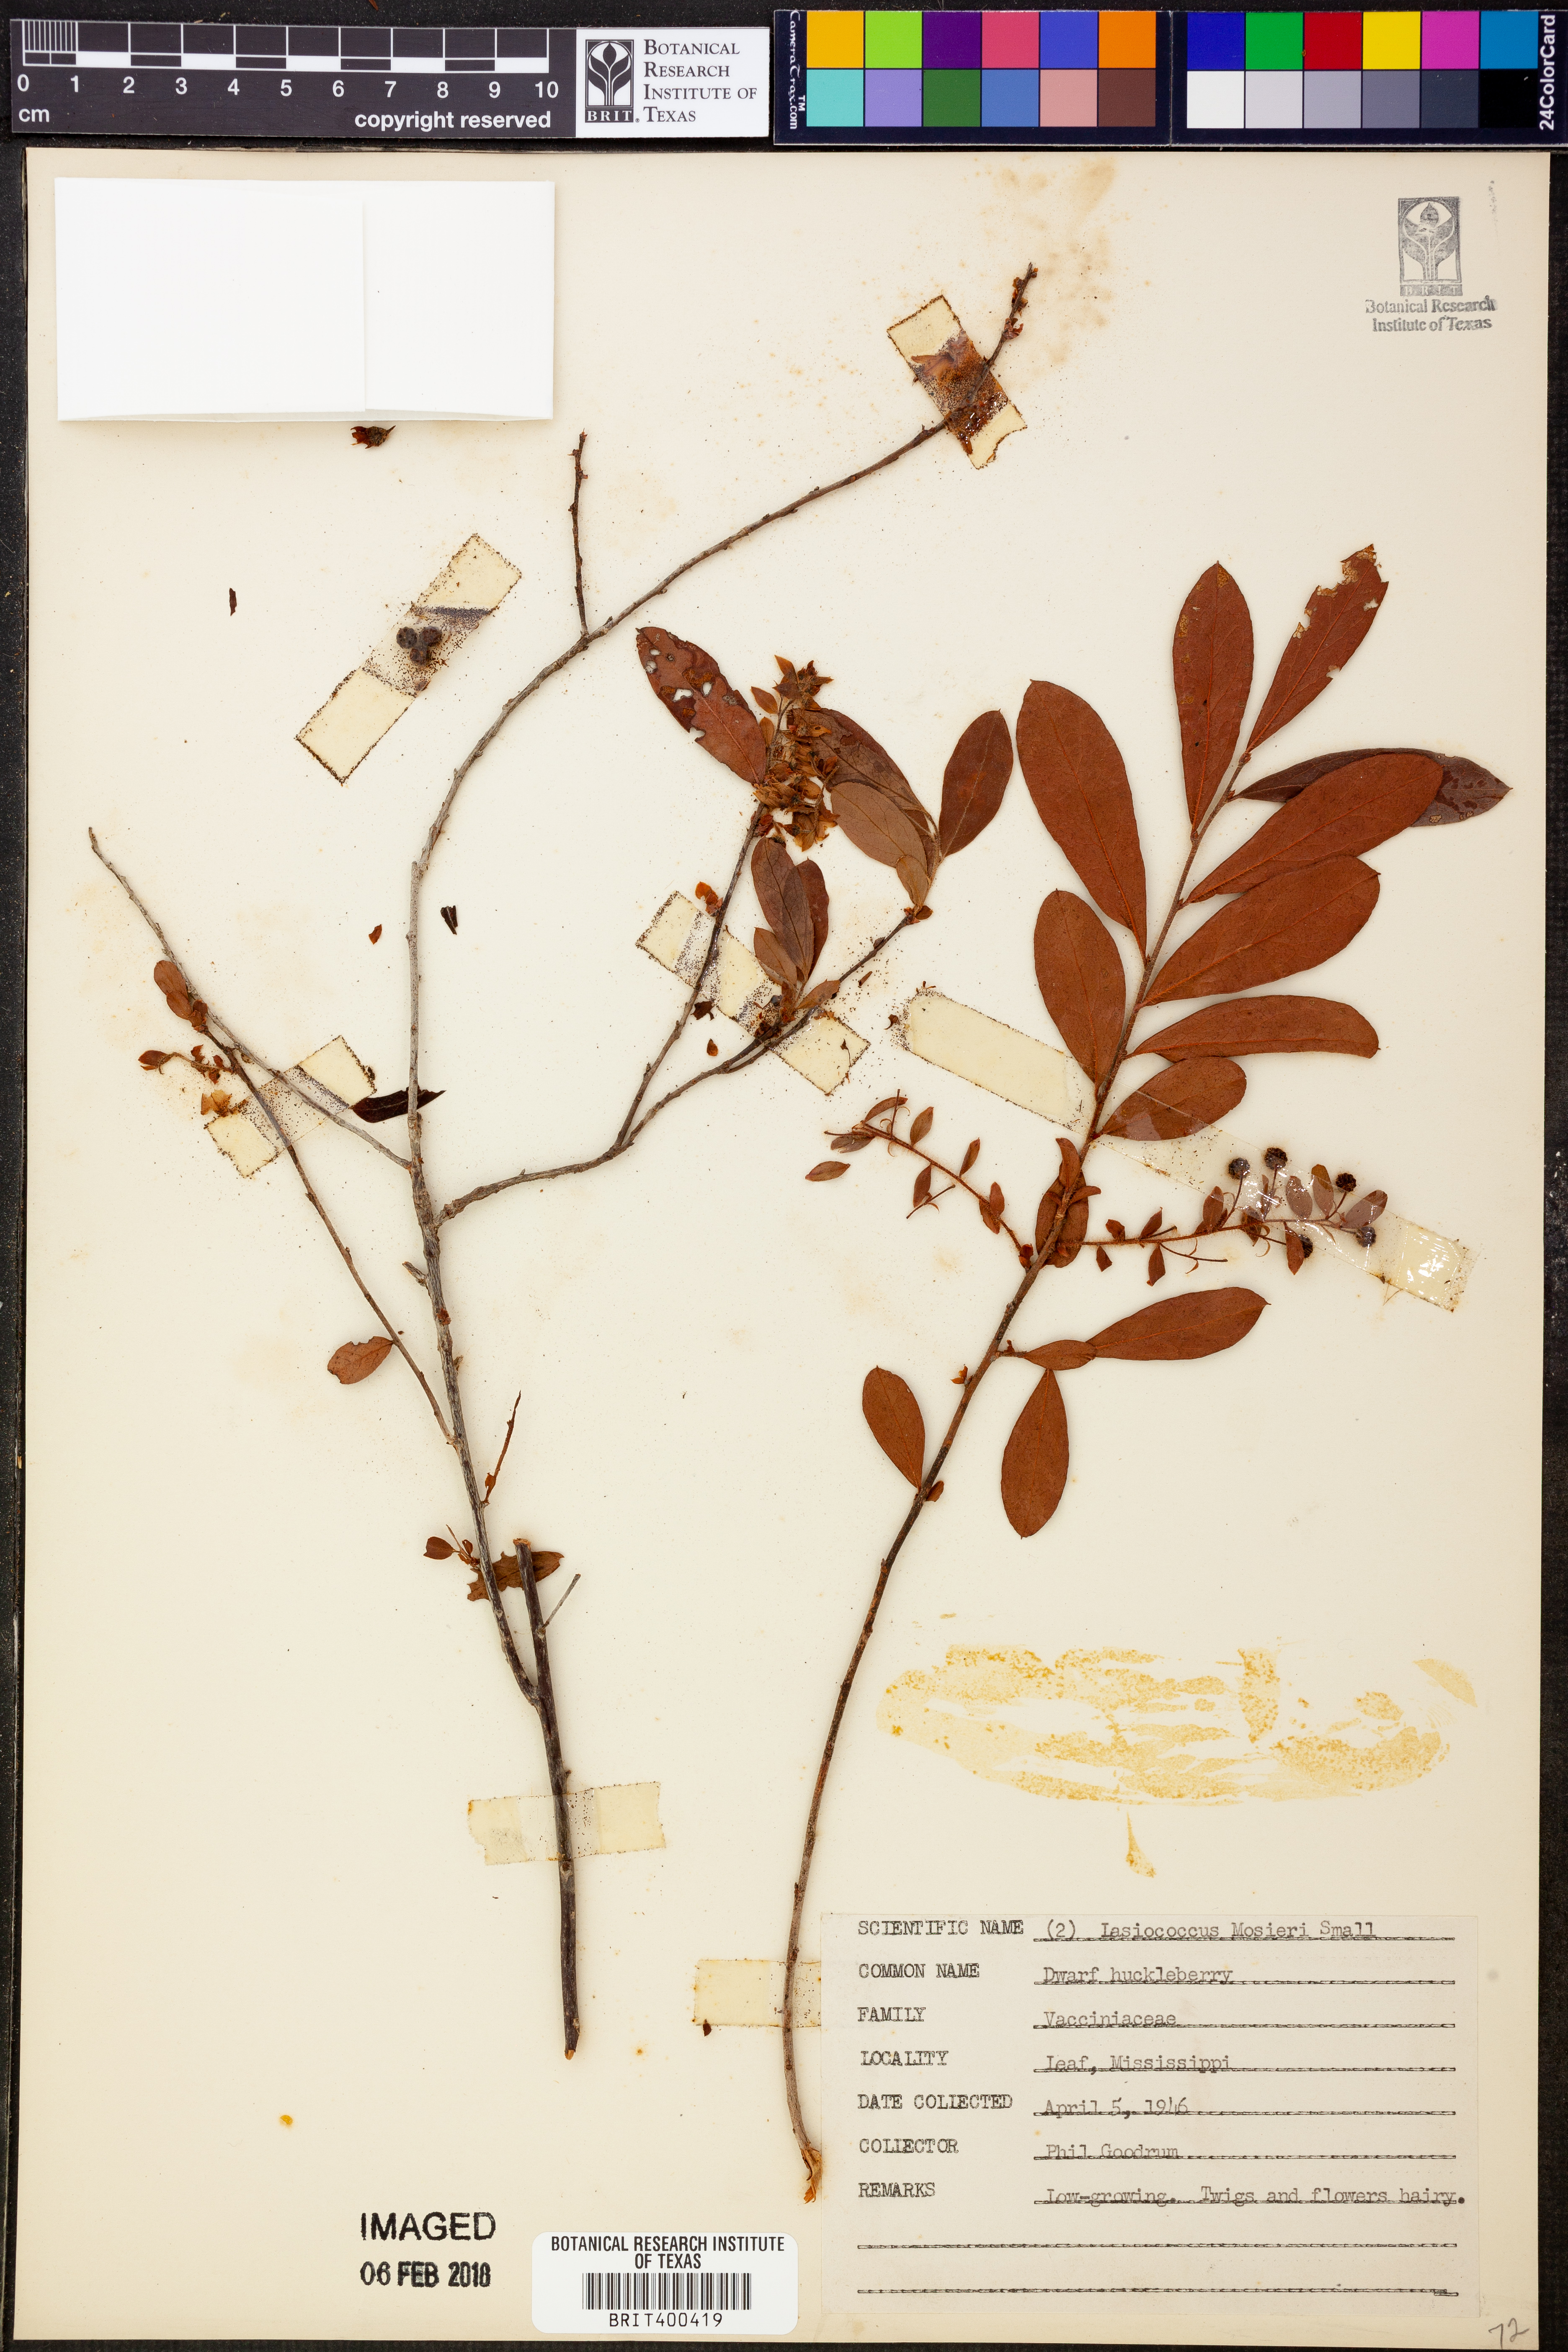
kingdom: Plantae
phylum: Tracheophyta
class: Magnoliopsida
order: Ericales
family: Ericaceae
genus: Gaylussacia
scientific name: Gaylussacia mosieri
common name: Hirsute huckleberry
